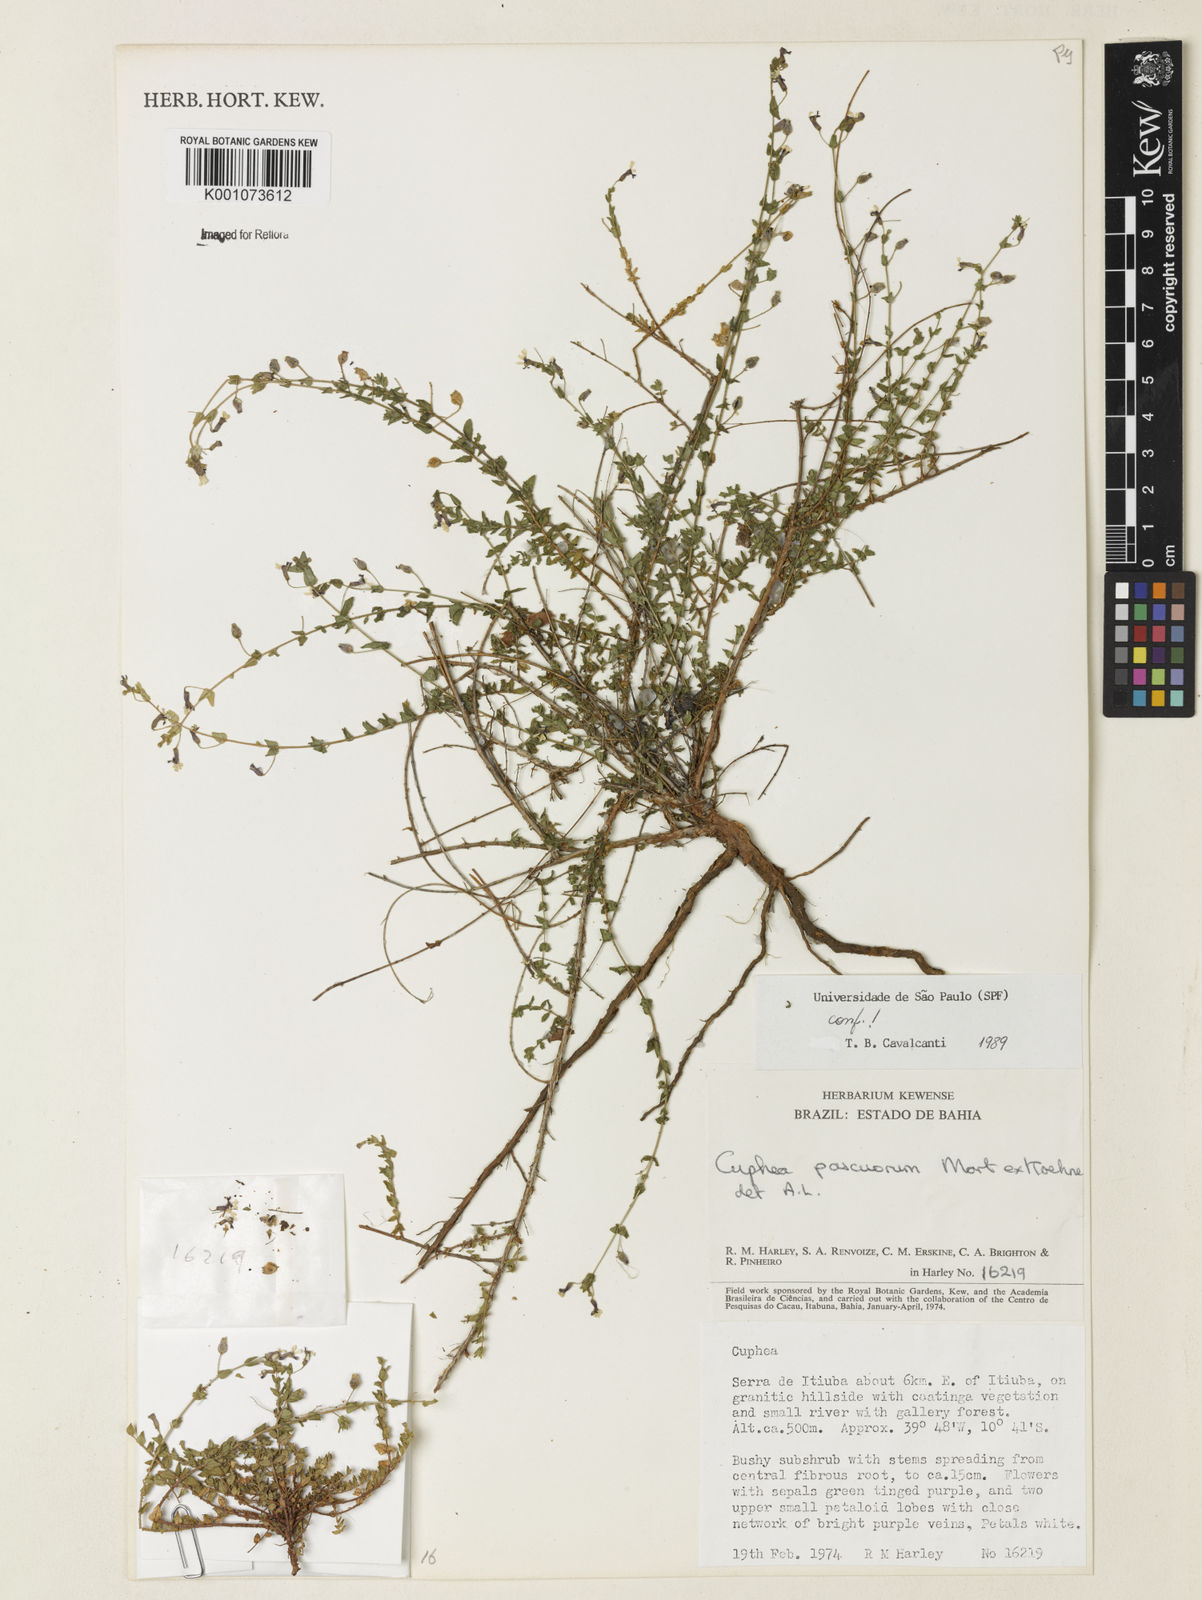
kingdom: Plantae
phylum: Tracheophyta
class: Magnoliopsida
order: Myrtales
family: Lythraceae
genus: Cuphea
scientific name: Cuphea pascuorum
